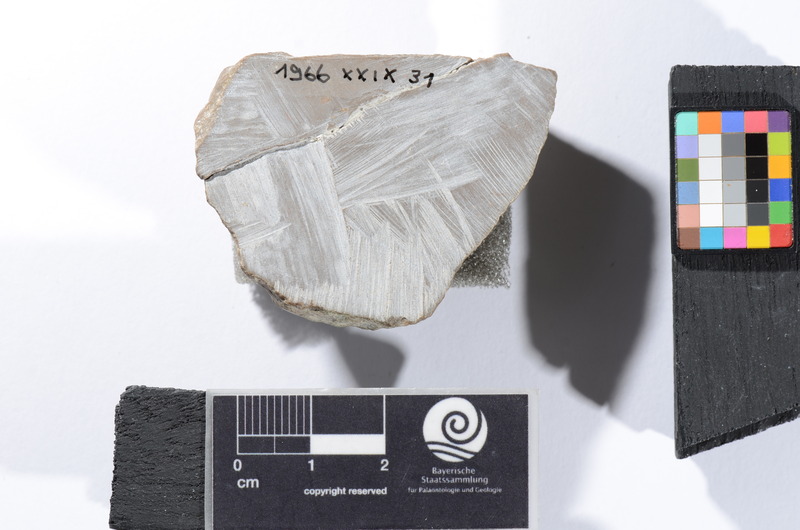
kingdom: Animalia
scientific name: Animalia
